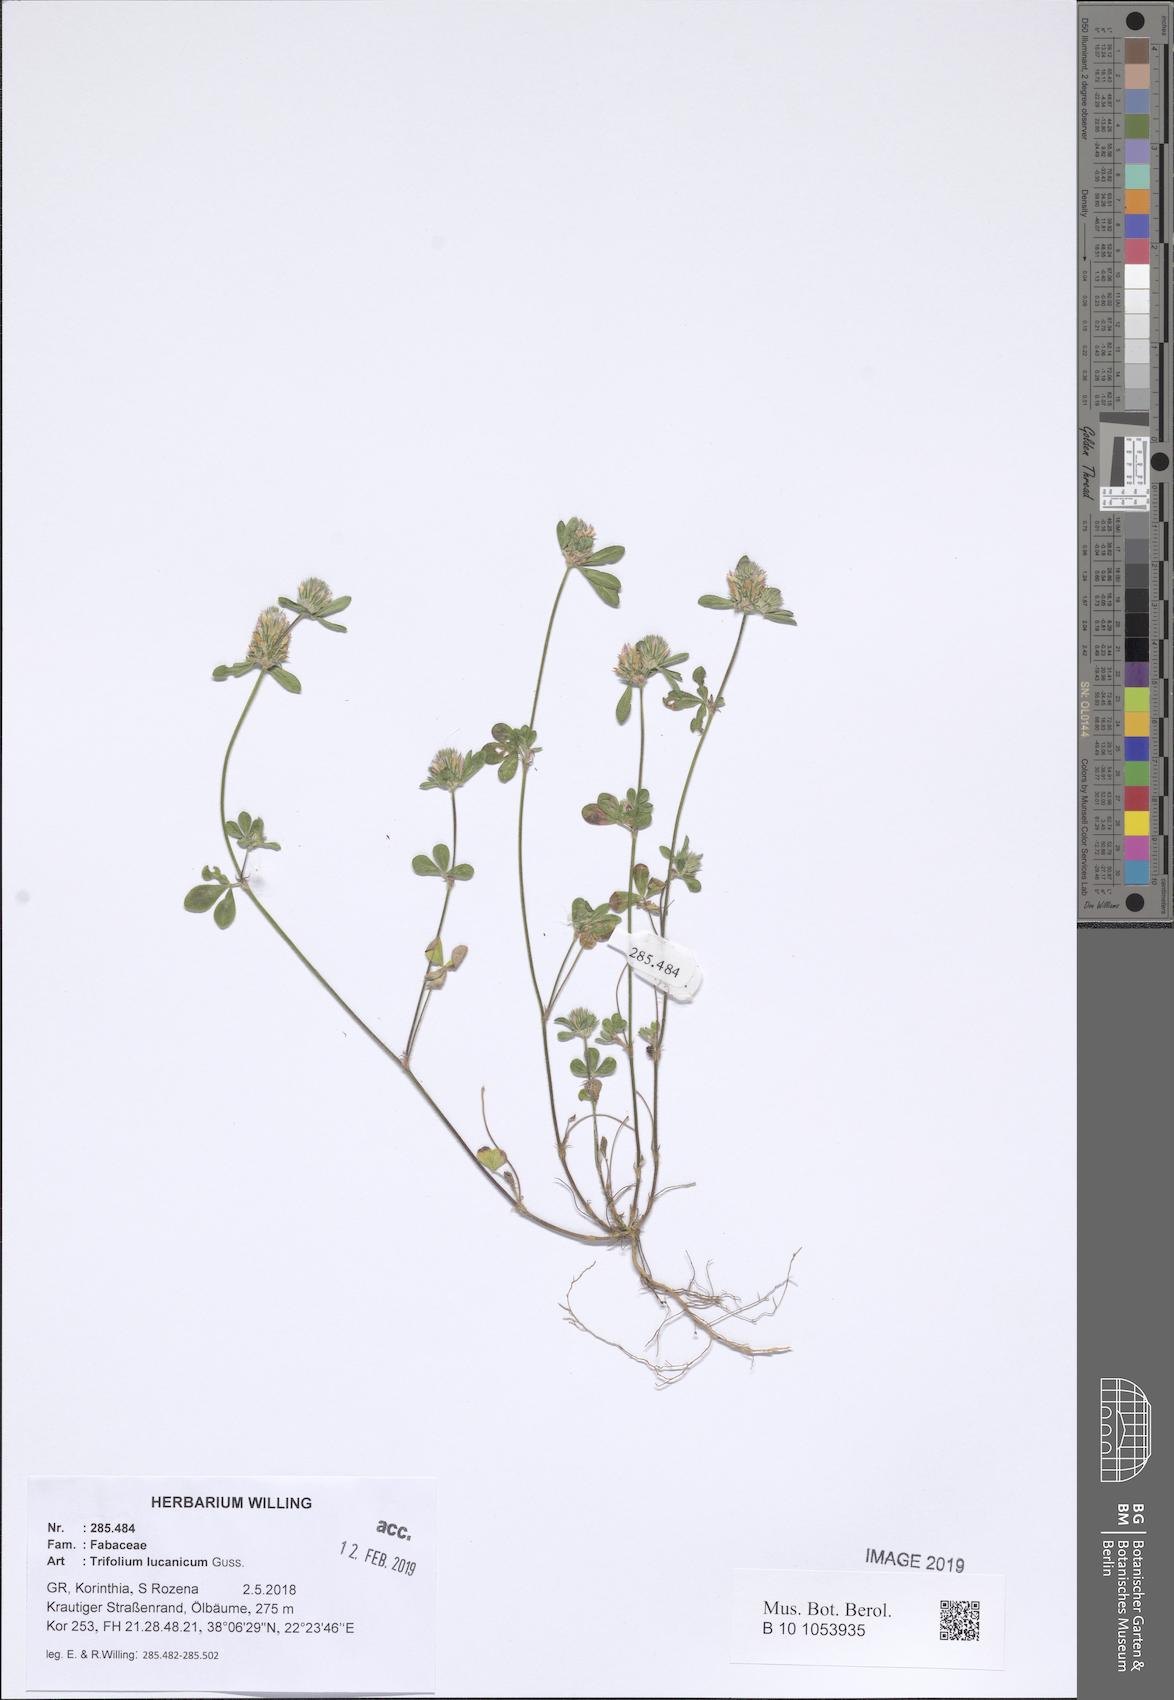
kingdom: Plantae
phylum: Tracheophyta
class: Magnoliopsida
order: Fabales
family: Fabaceae
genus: Trifolium
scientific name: Trifolium lucanicum
